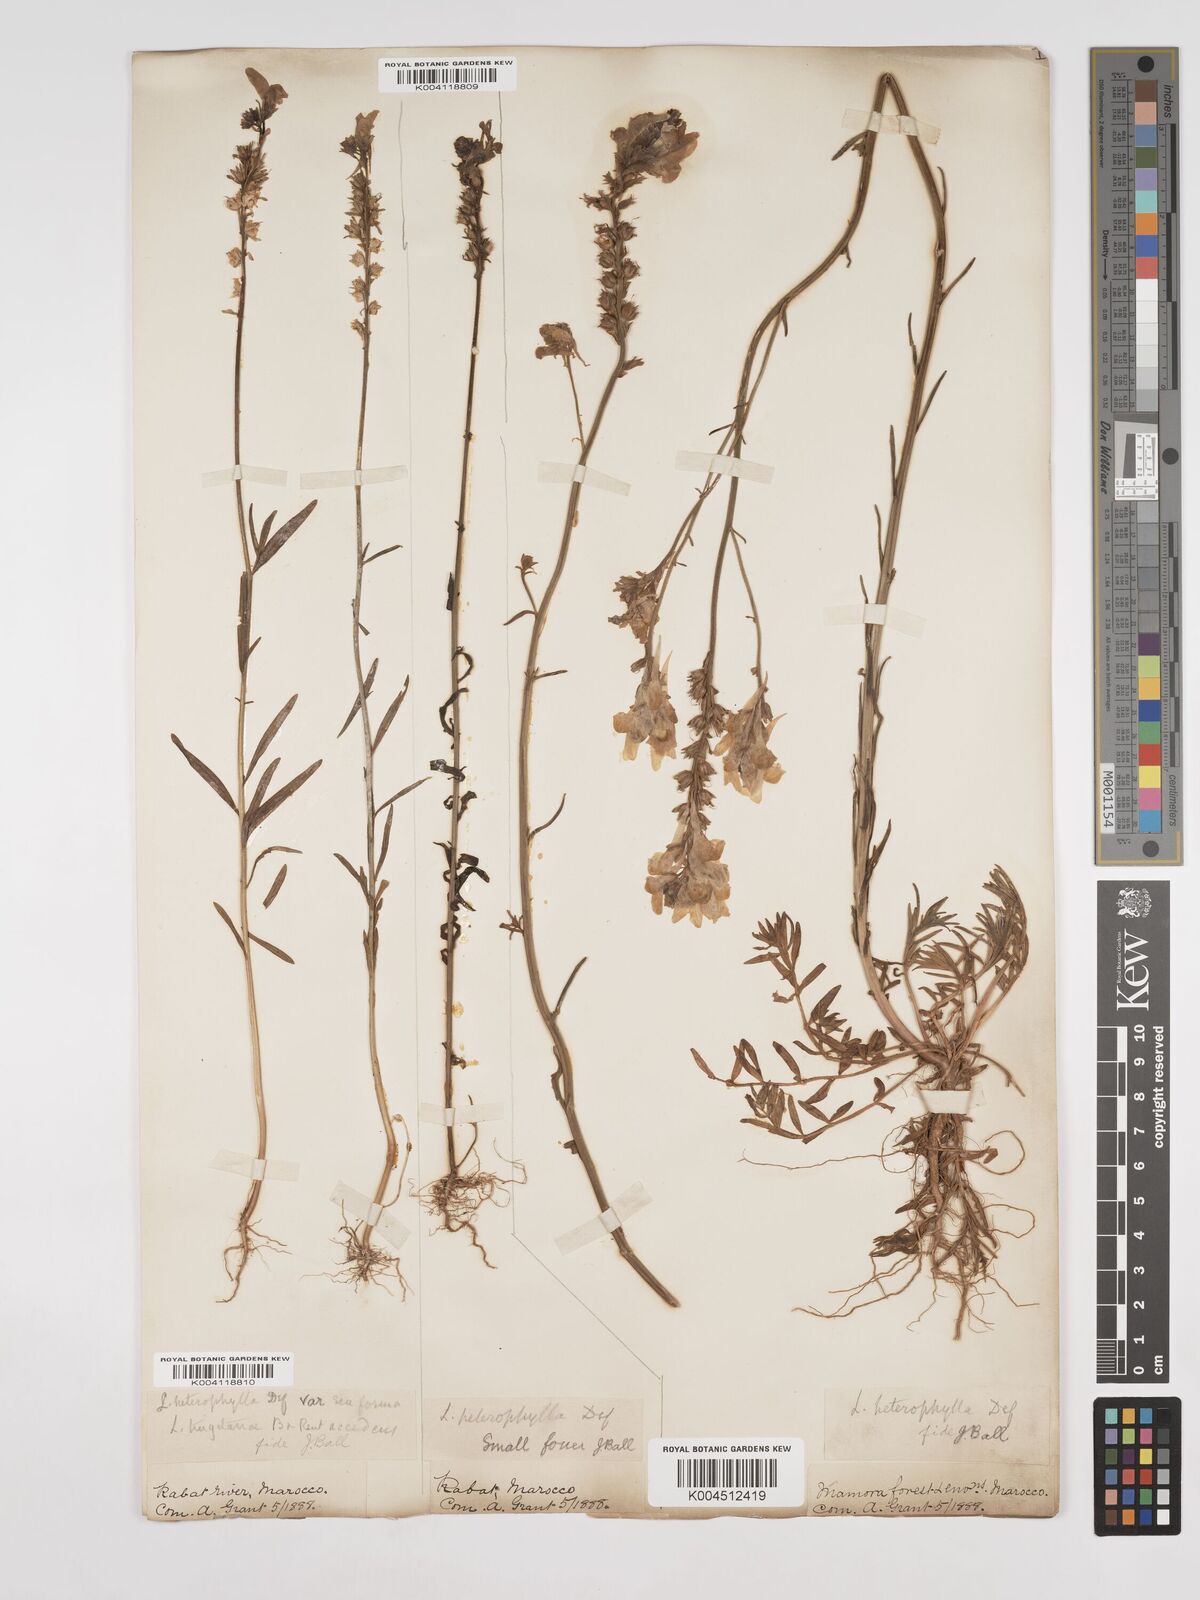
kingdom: Plantae
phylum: Tracheophyta
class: Magnoliopsida
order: Lamiales
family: Plantaginaceae
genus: Linaria
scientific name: Linaria multicaulis
